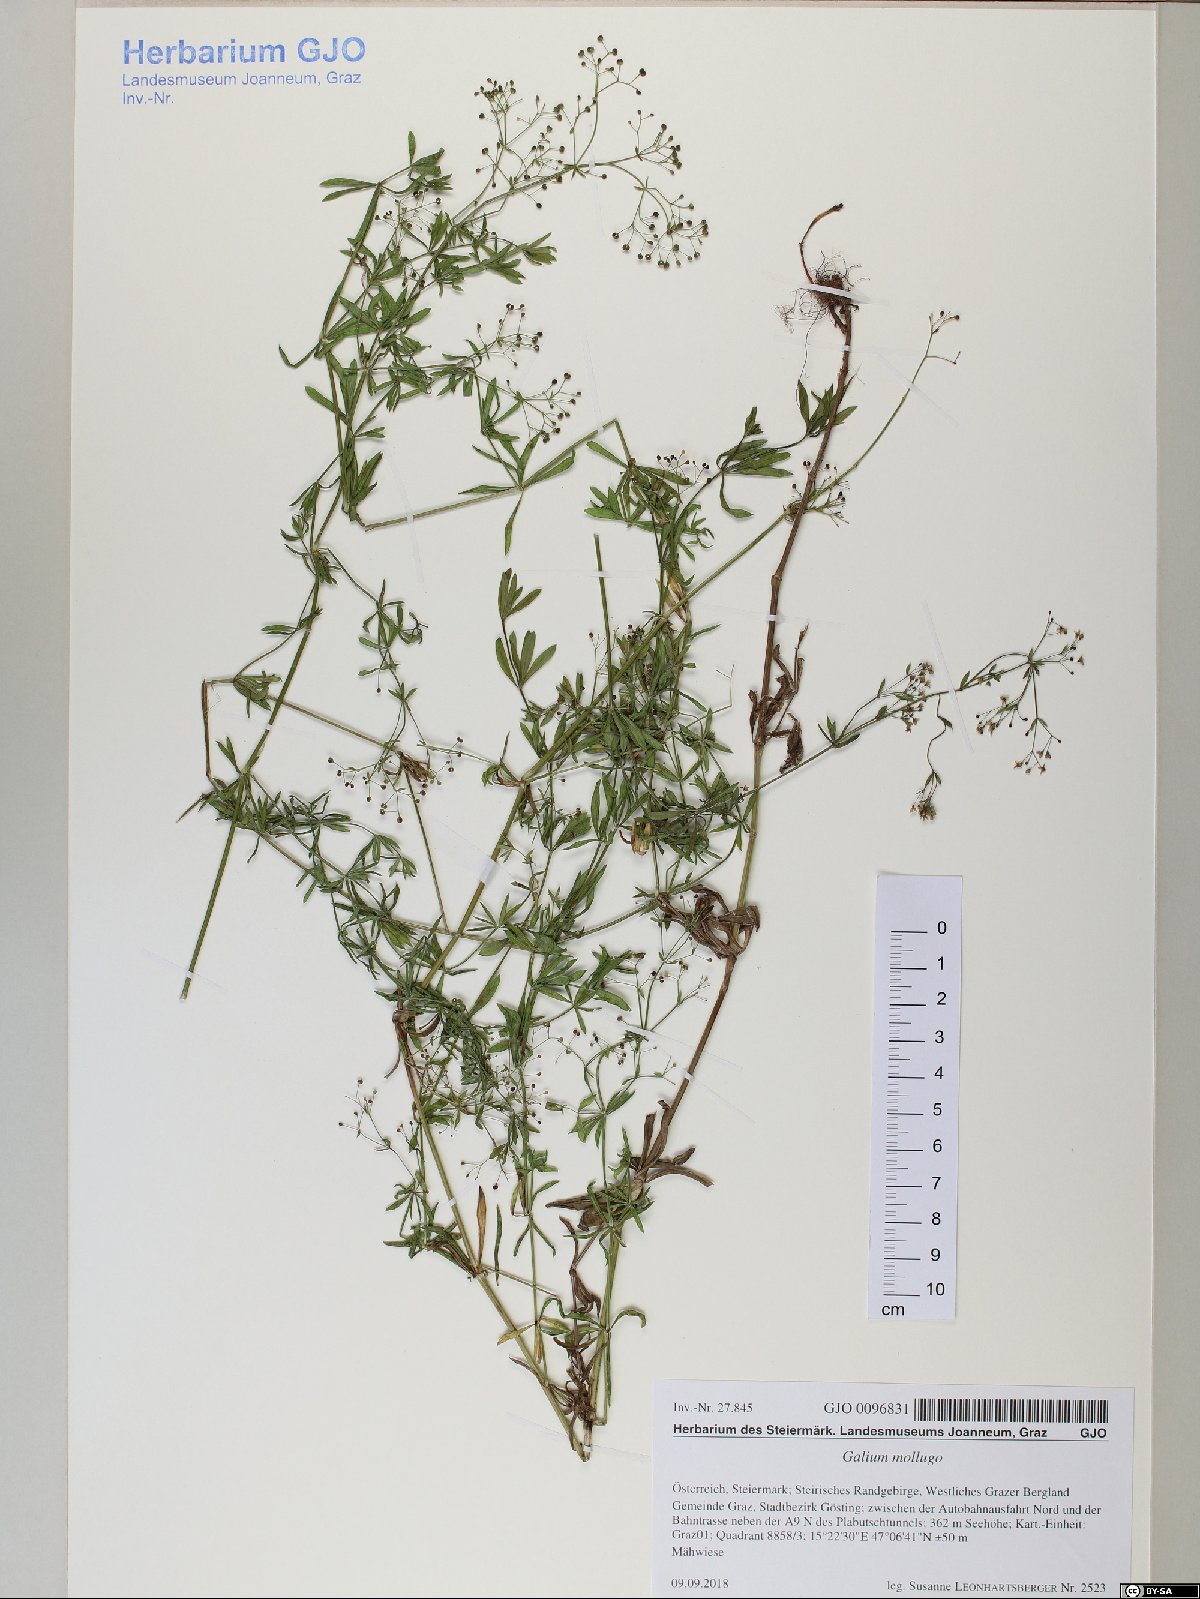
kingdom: Plantae
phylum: Tracheophyta
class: Magnoliopsida
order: Gentianales
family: Rubiaceae
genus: Galium
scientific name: Galium mollugo
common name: Hedge bedstraw
